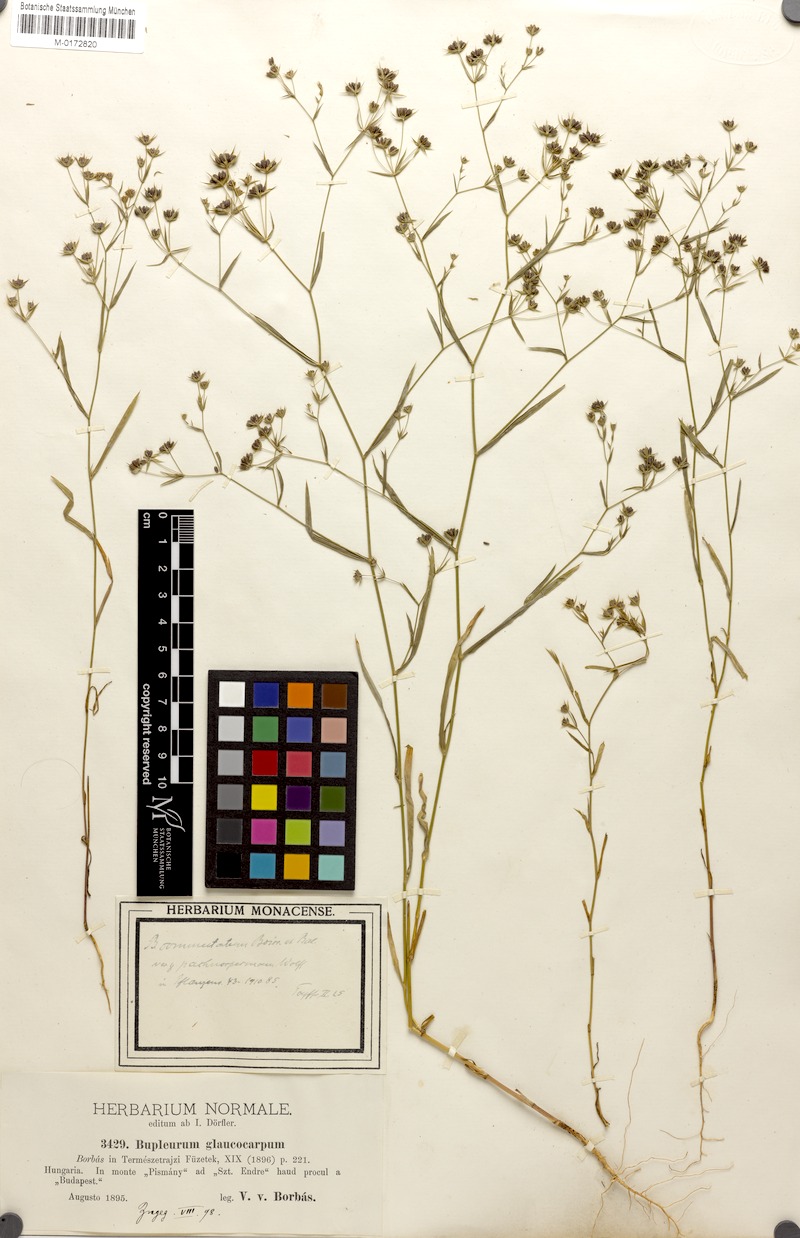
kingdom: Plantae
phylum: Tracheophyta
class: Magnoliopsida
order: Apiales
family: Apiaceae
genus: Bupleurum
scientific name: Bupleurum pachnospermum
